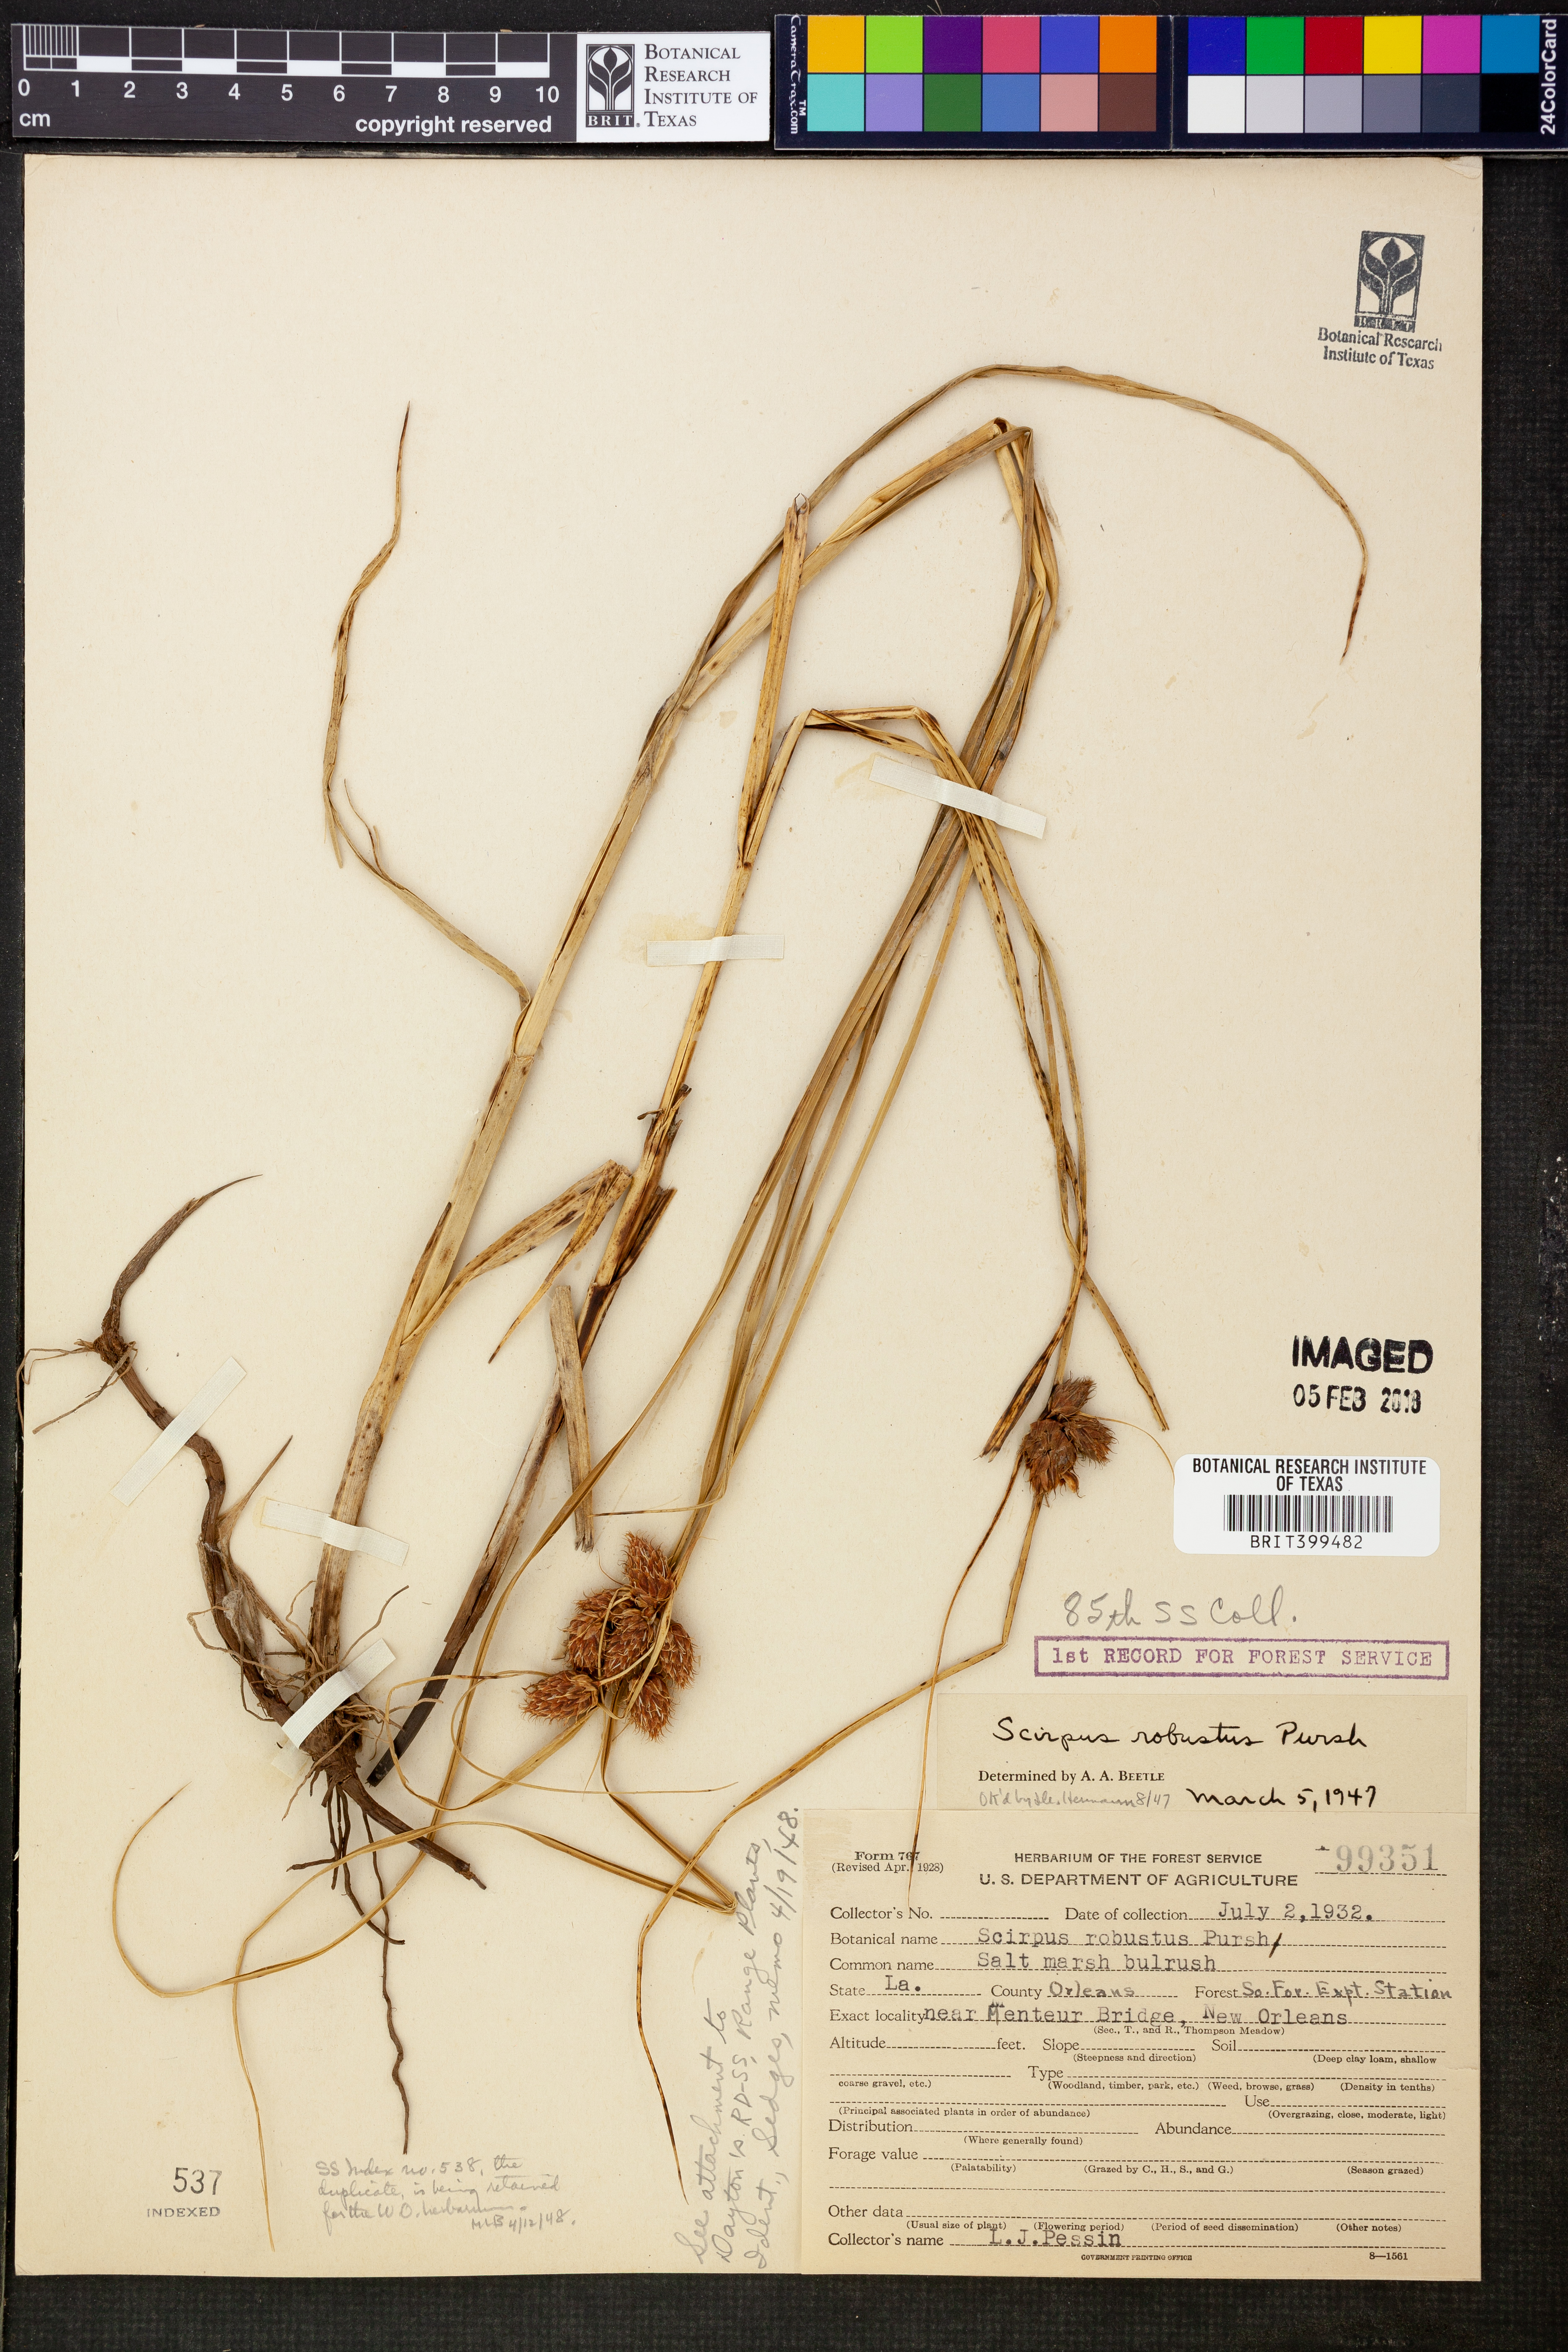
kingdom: Plantae
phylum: Tracheophyta
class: Liliopsida
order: Poales
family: Cyperaceae
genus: Bolboschoenus
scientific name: Bolboschoenus robustus
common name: Seacoast bulrush
